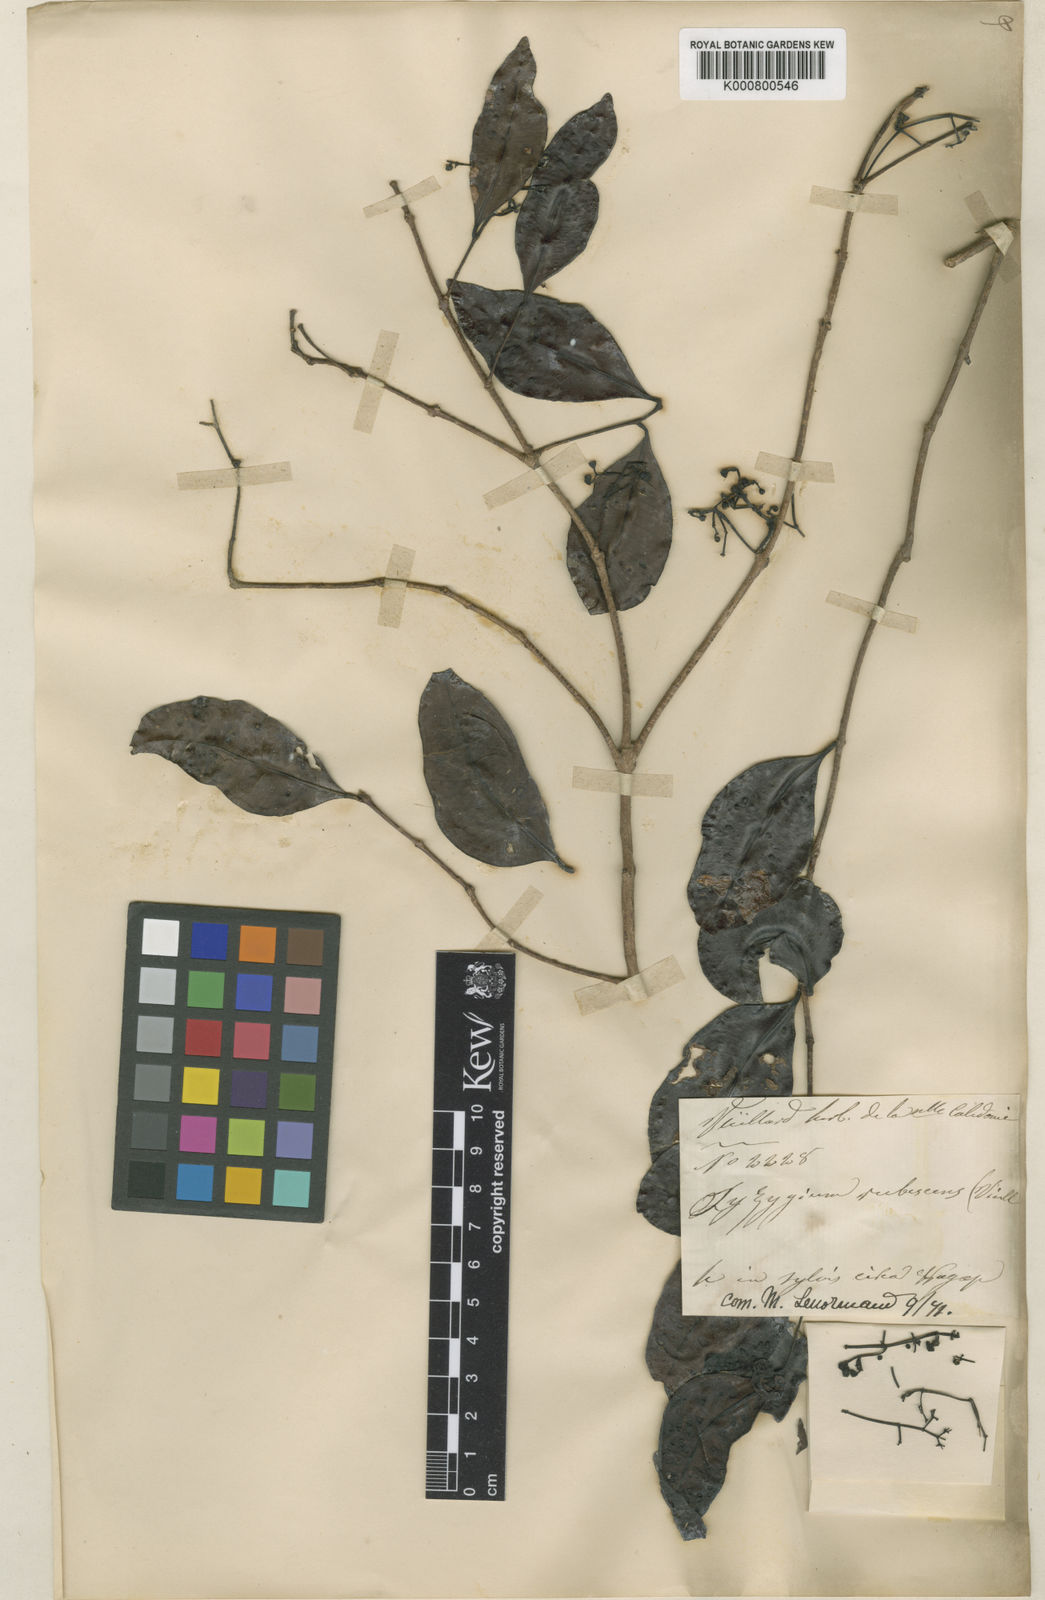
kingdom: Plantae
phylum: Tracheophyta
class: Magnoliopsida
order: Myrtales
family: Myrtaceae
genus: Syzygium
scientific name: Syzygium
